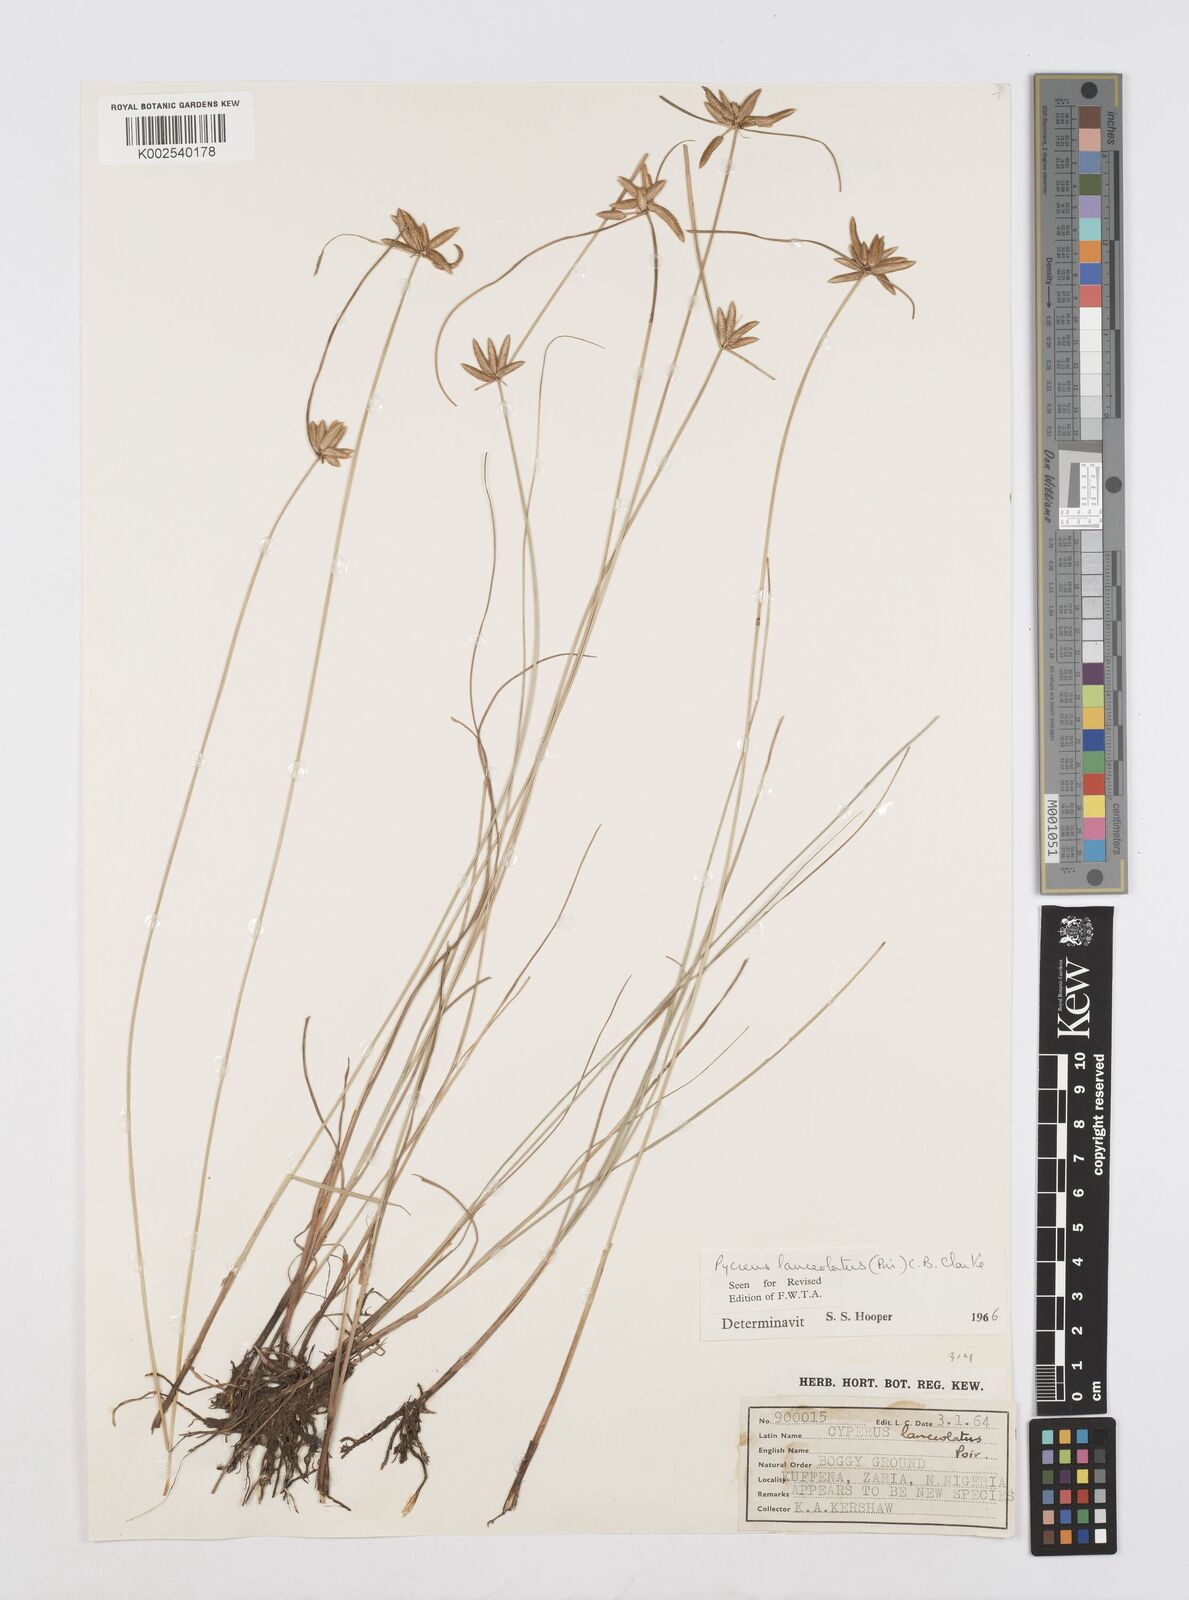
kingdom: Plantae
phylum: Tracheophyta
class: Liliopsida
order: Poales
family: Cyperaceae
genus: Cyperus
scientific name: Cyperus
